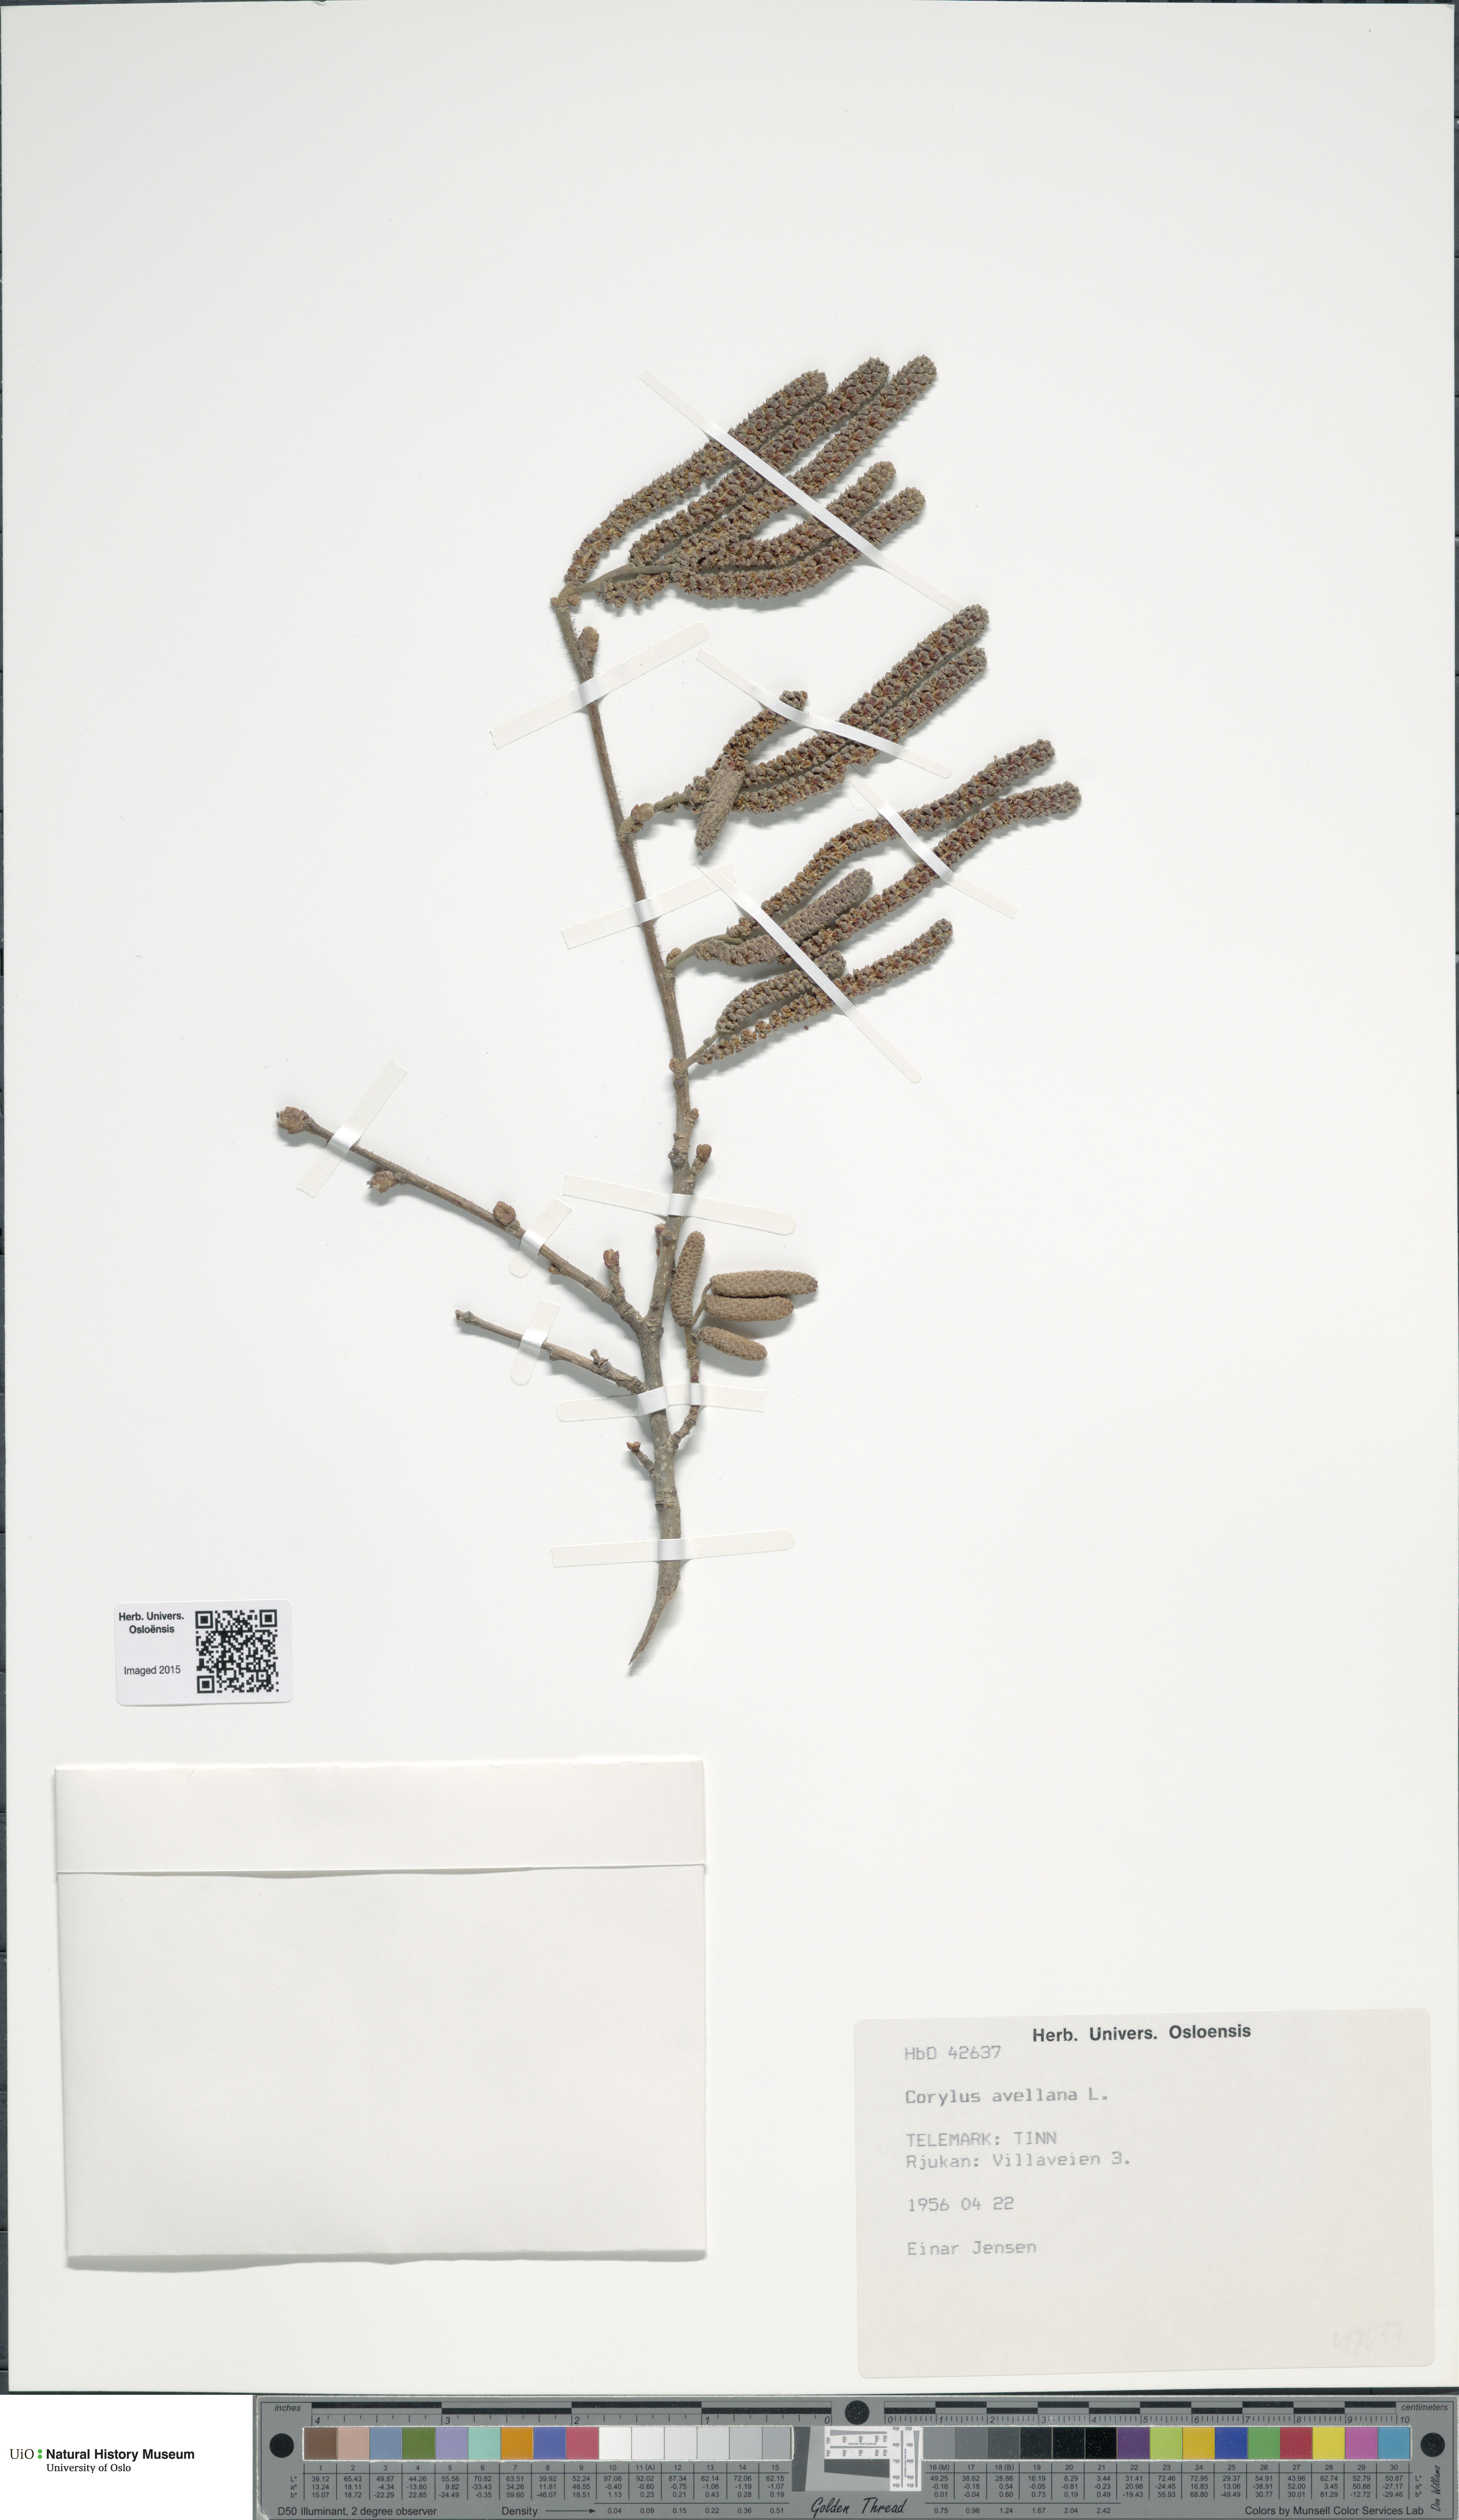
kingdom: Plantae
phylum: Tracheophyta
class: Magnoliopsida
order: Fagales
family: Betulaceae
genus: Corylus
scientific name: Corylus avellana
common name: European hazel
